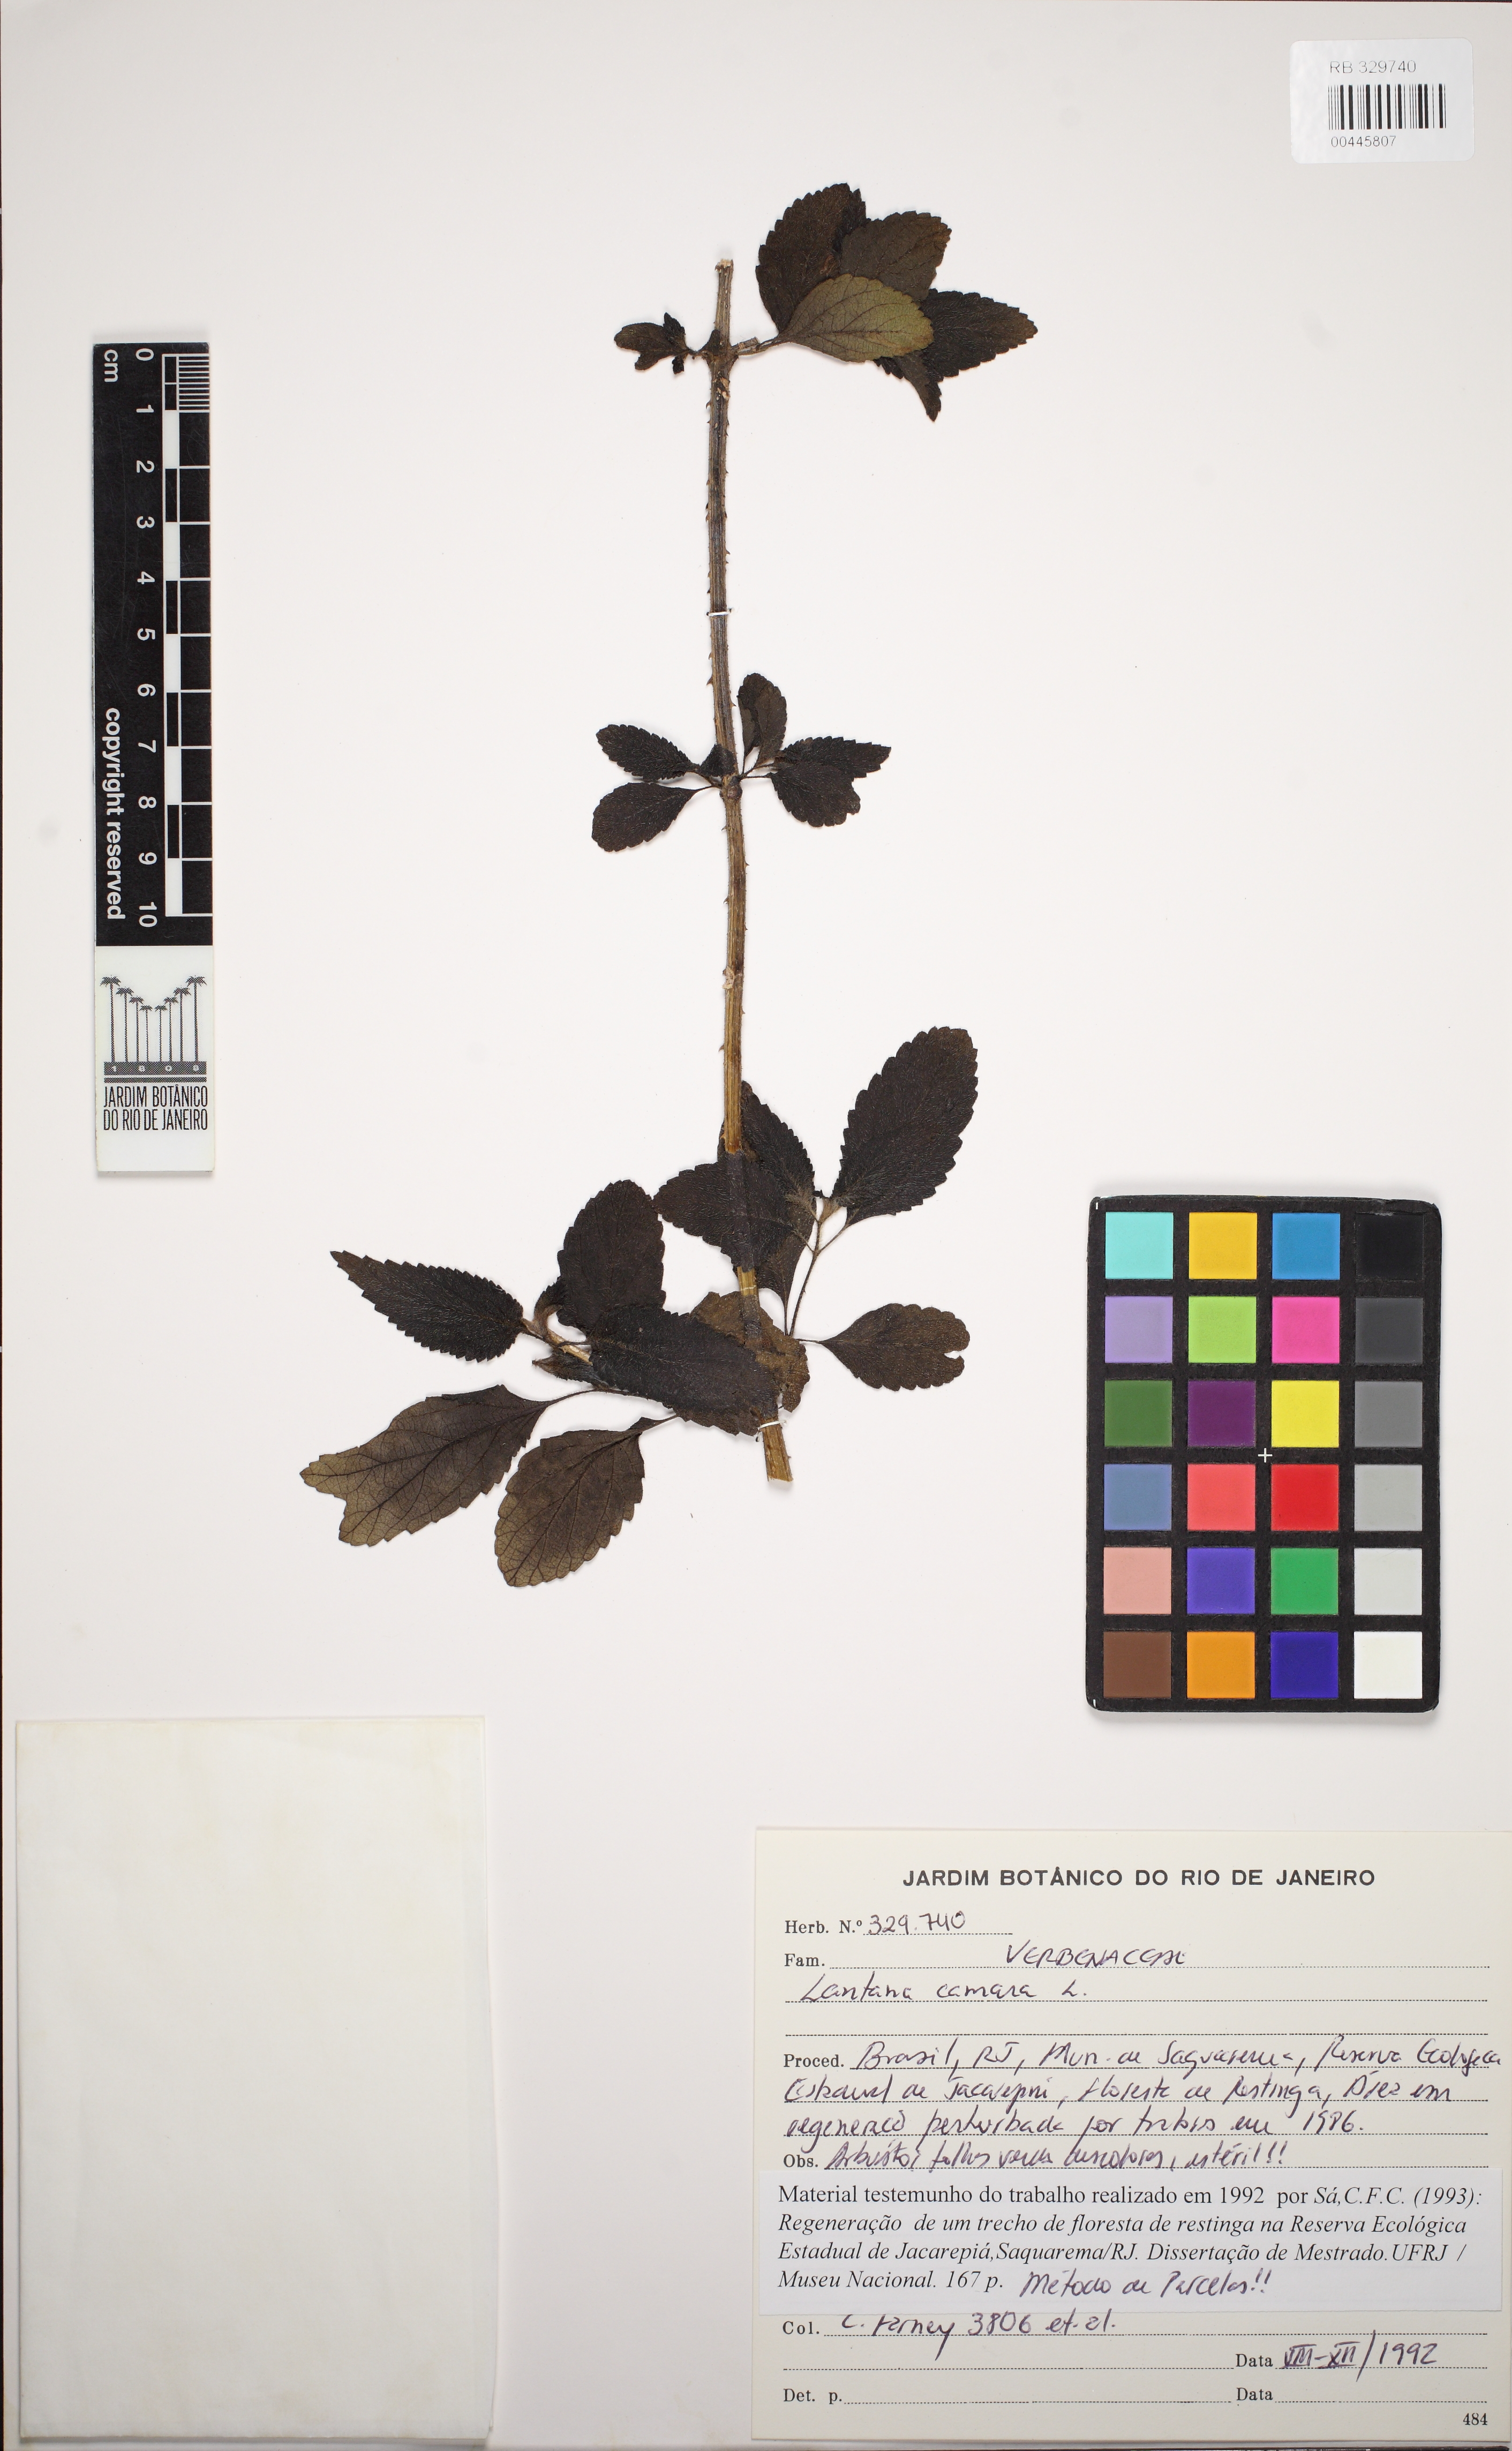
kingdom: Plantae
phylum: Tracheophyta
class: Magnoliopsida
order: Lamiales
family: Verbenaceae
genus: Lantana
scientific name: Lantana camara
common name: Lantana
